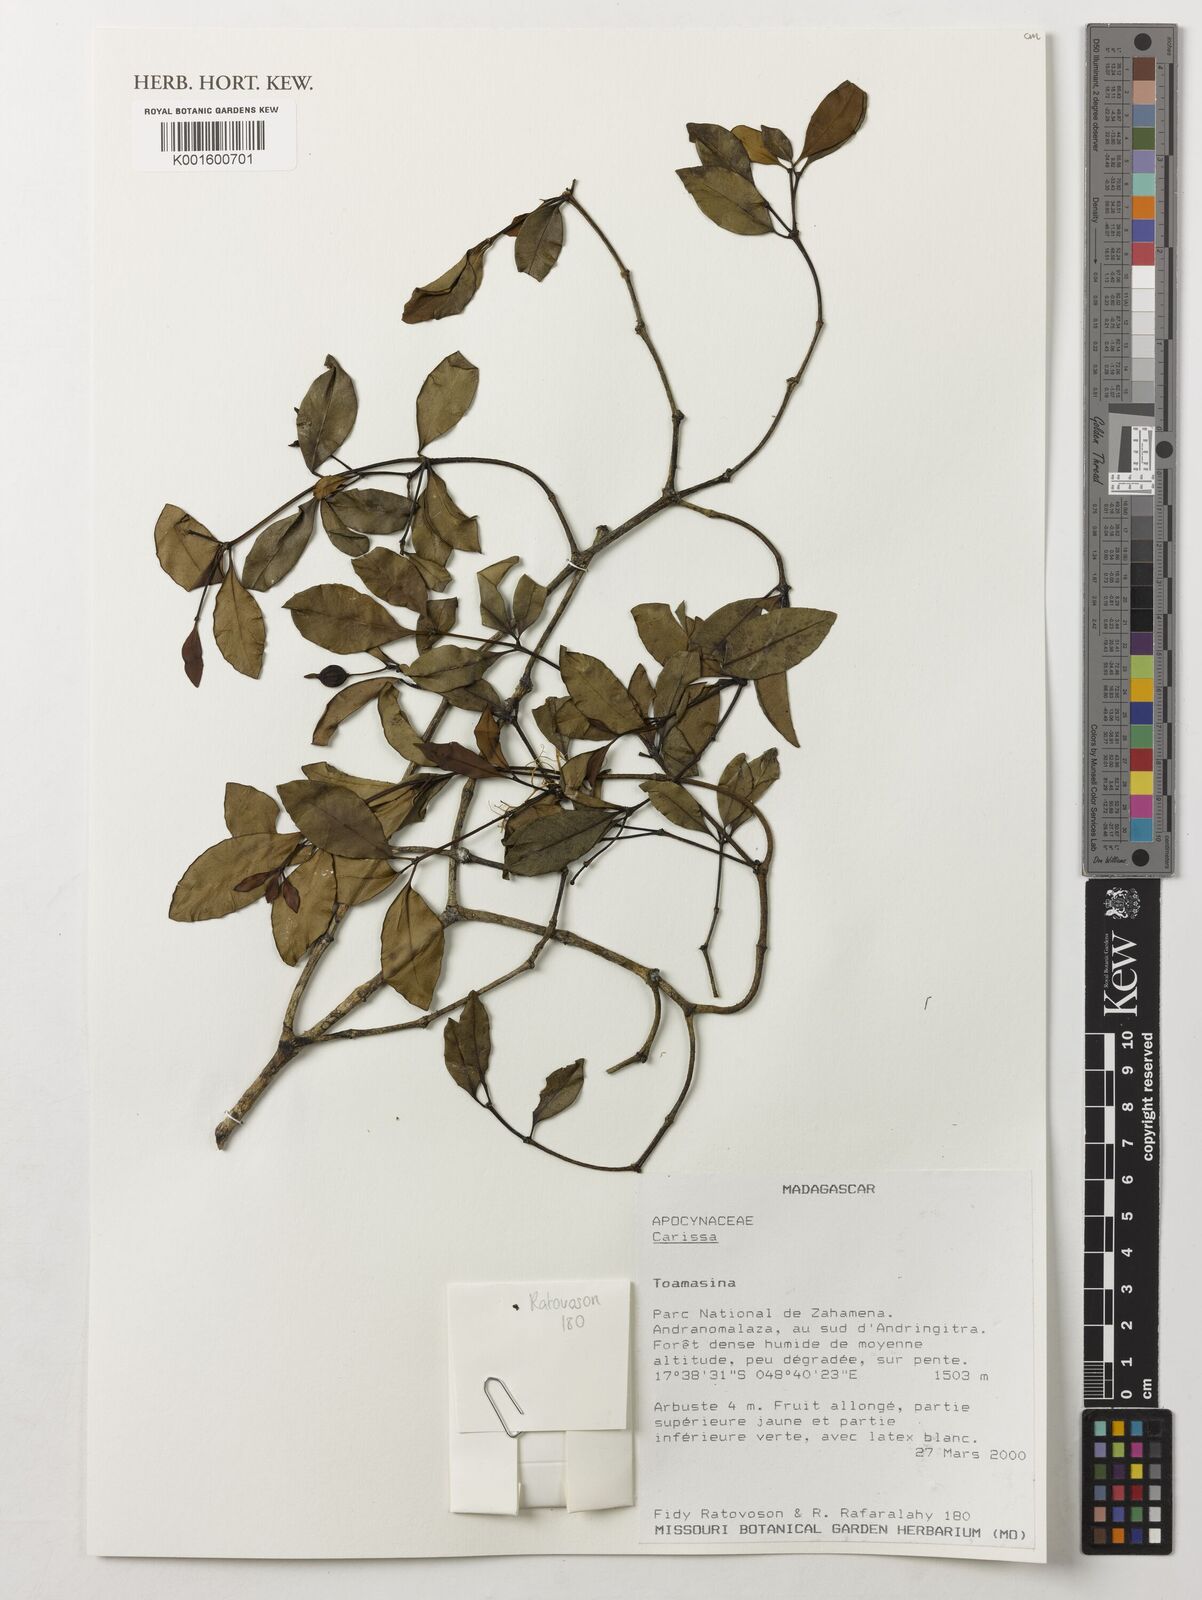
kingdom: Plantae
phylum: Tracheophyta
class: Magnoliopsida
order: Gentianales
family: Apocynaceae
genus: Carissa
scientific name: Carissa
